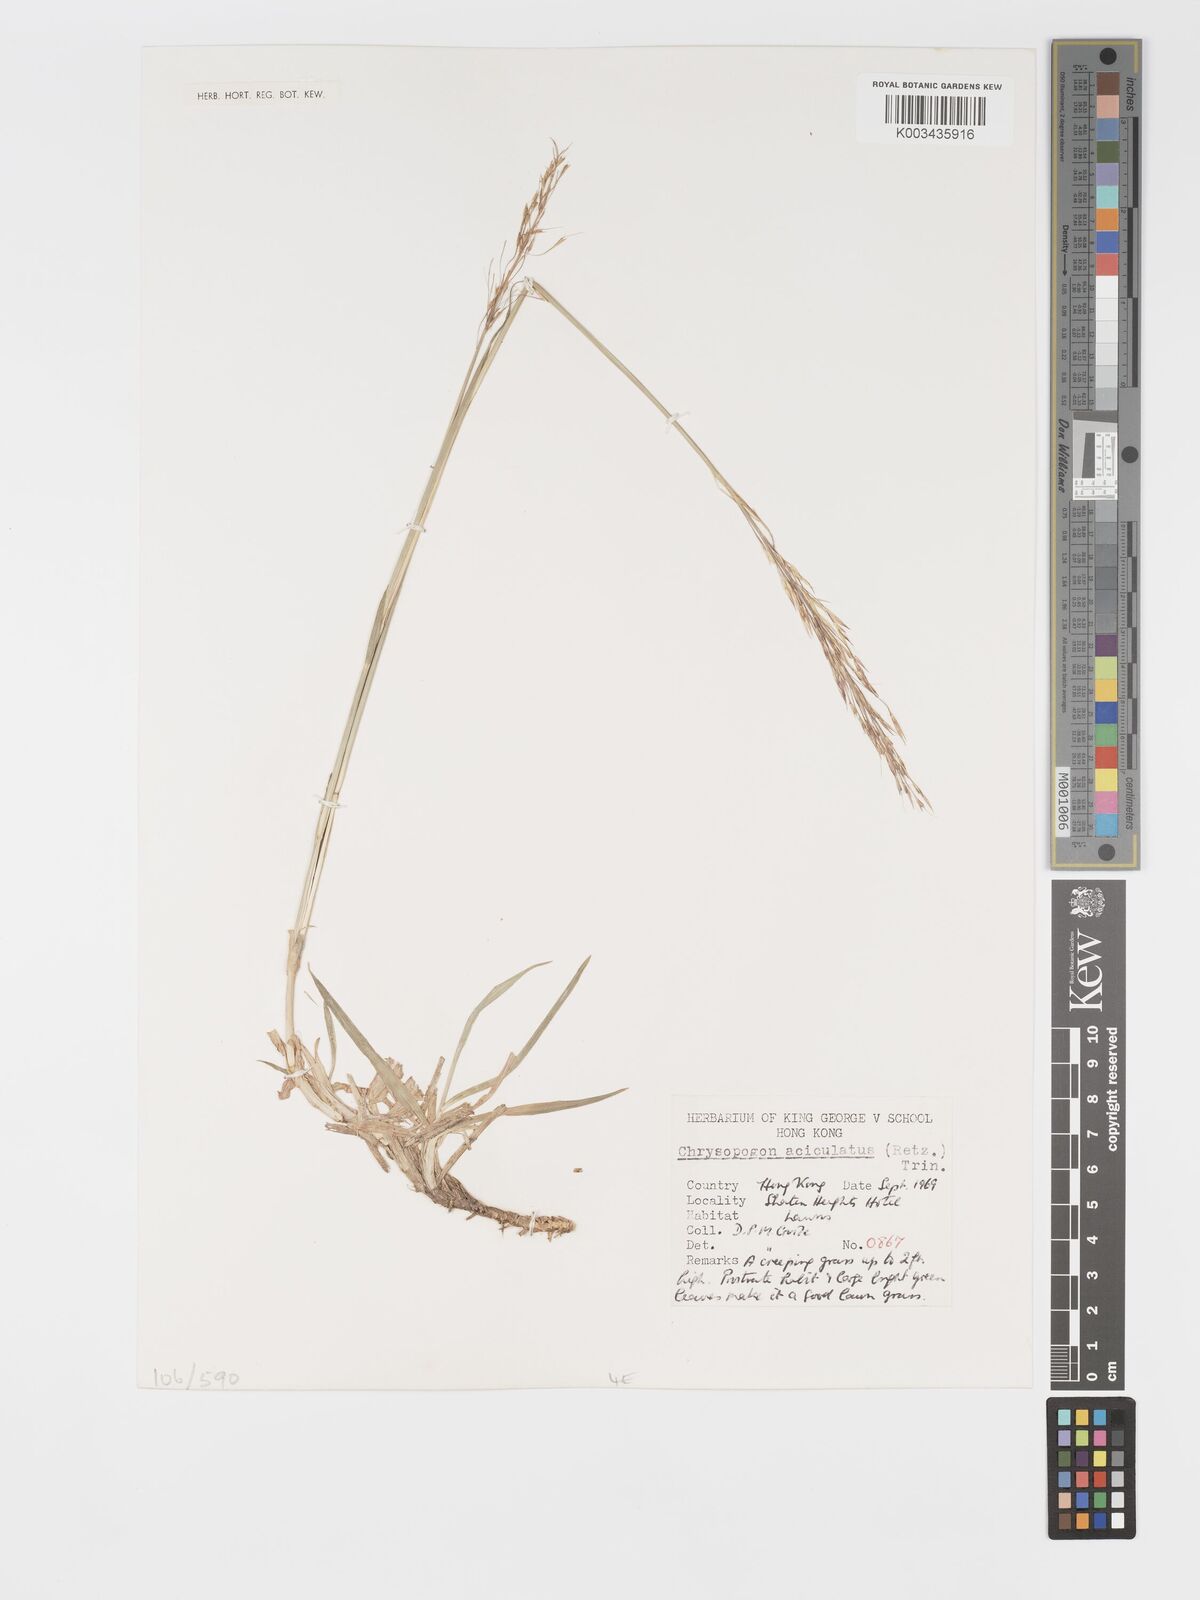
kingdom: Plantae
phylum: Tracheophyta
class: Liliopsida
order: Poales
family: Poaceae
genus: Chrysopogon
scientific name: Chrysopogon aciculatus
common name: Pilipiliula
